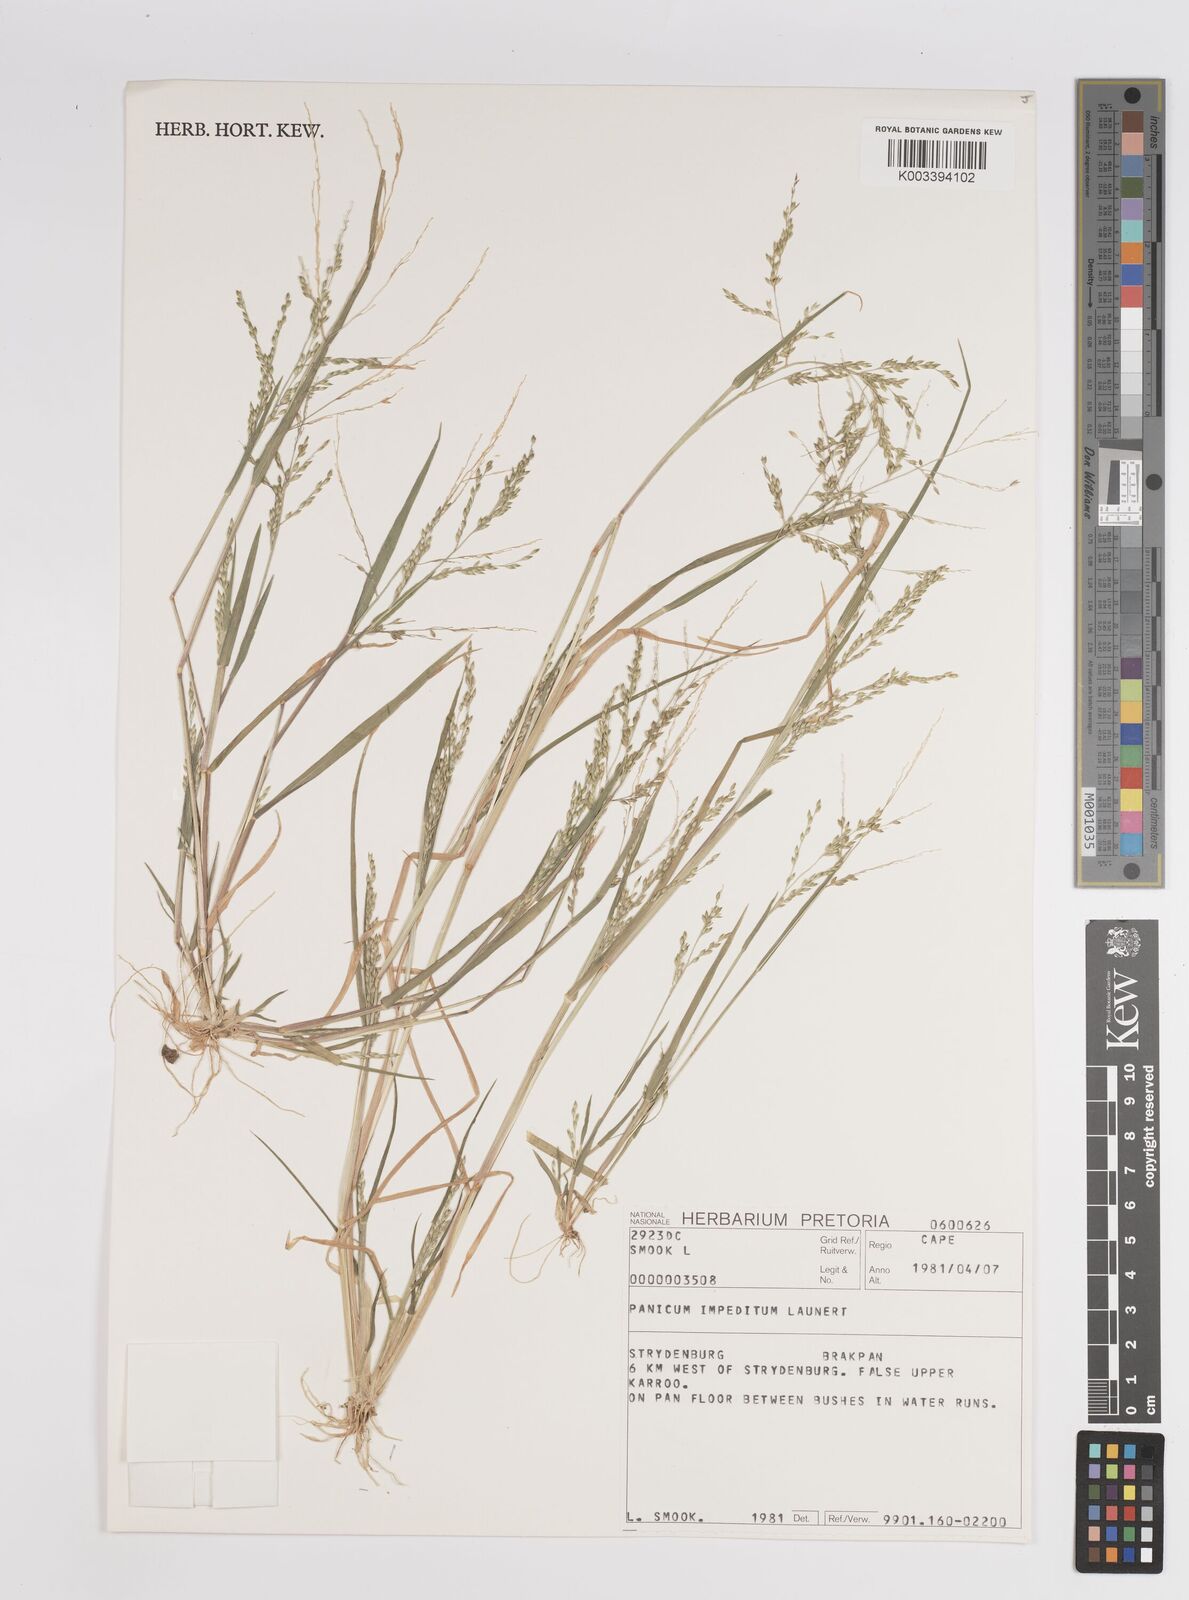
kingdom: Plantae
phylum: Tracheophyta
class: Liliopsida
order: Poales
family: Poaceae
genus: Panicum
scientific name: Panicum impeditum
